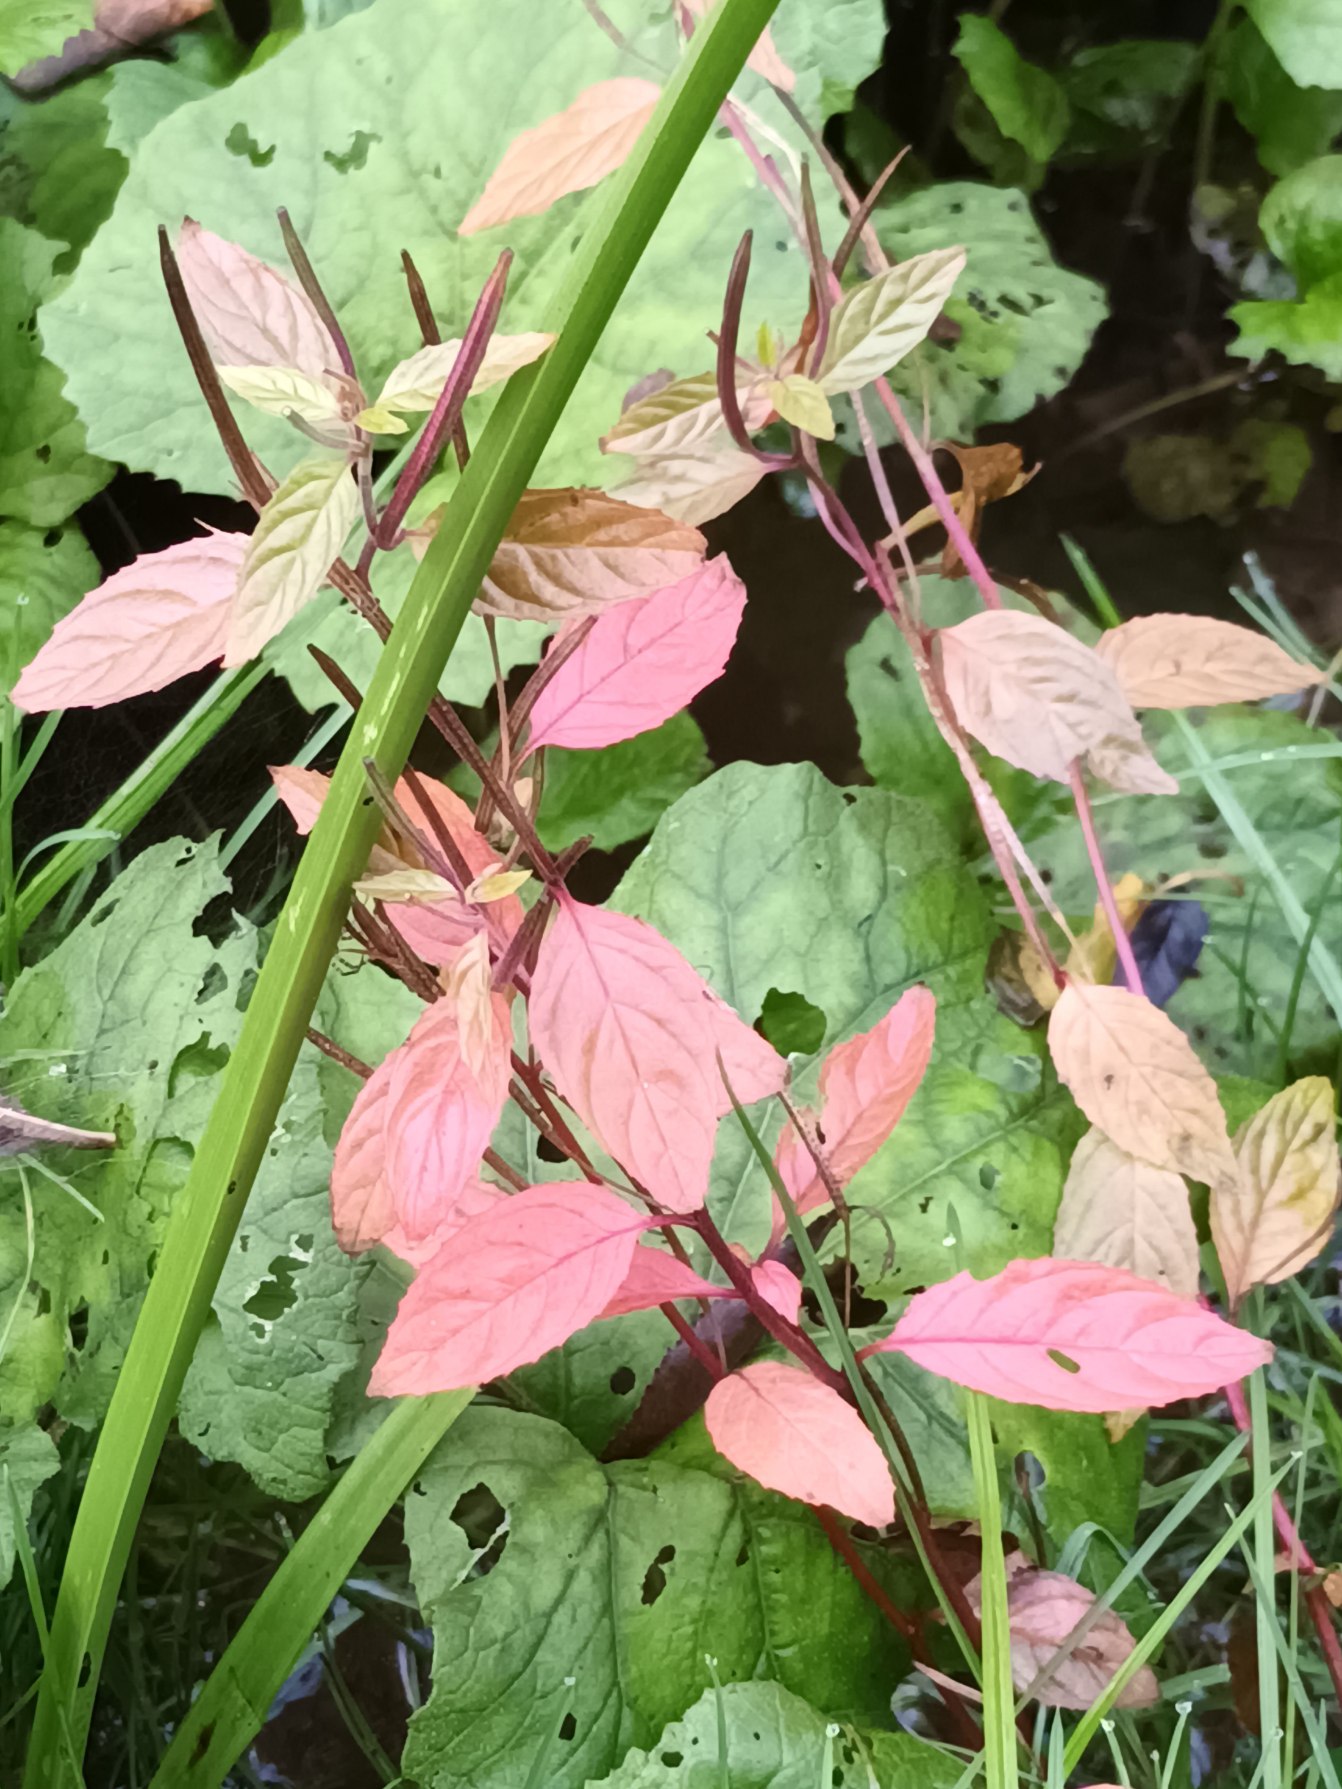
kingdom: Plantae
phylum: Tracheophyta
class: Magnoliopsida
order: Myrtales
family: Onagraceae
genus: Epilobium
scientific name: Epilobium roseum
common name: Rosen-dueurt
